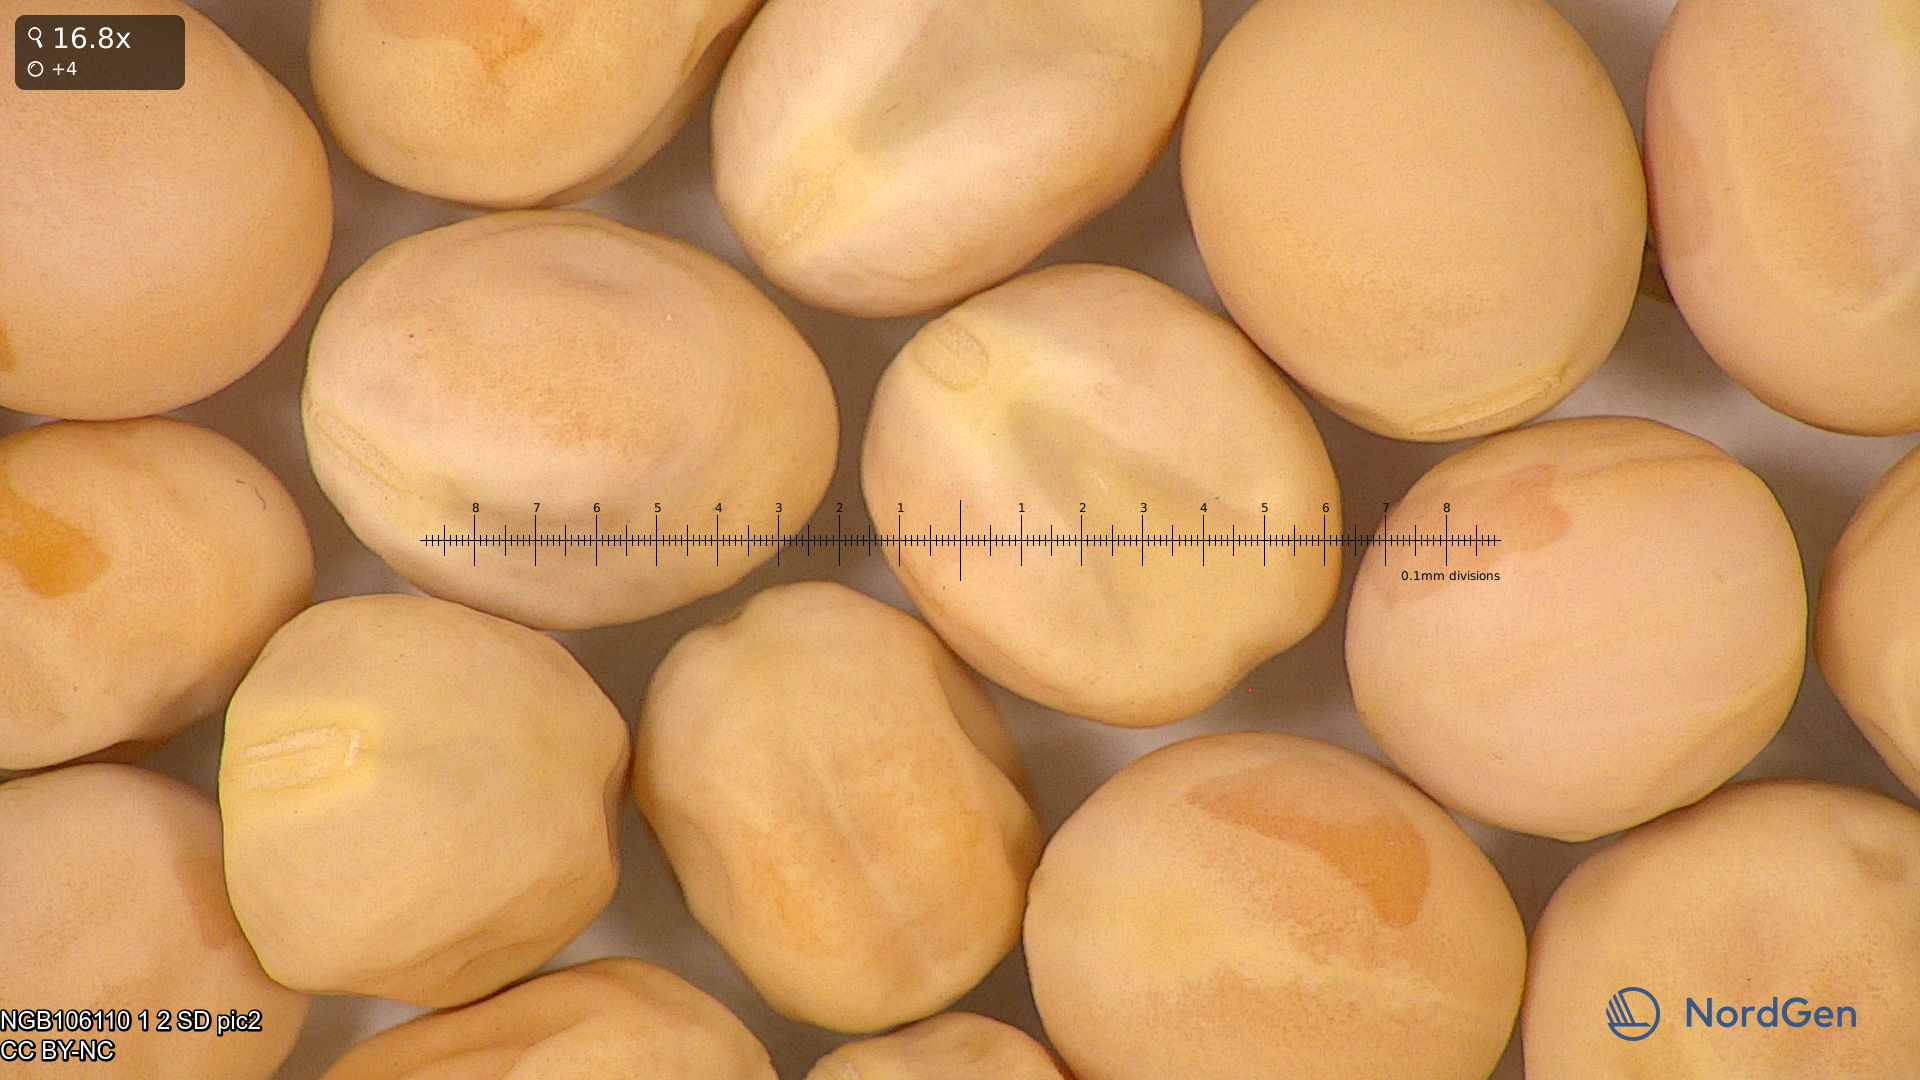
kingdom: Plantae
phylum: Tracheophyta
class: Magnoliopsida
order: Fabales
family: Fabaceae
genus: Lathyrus
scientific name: Lathyrus oleraceus
